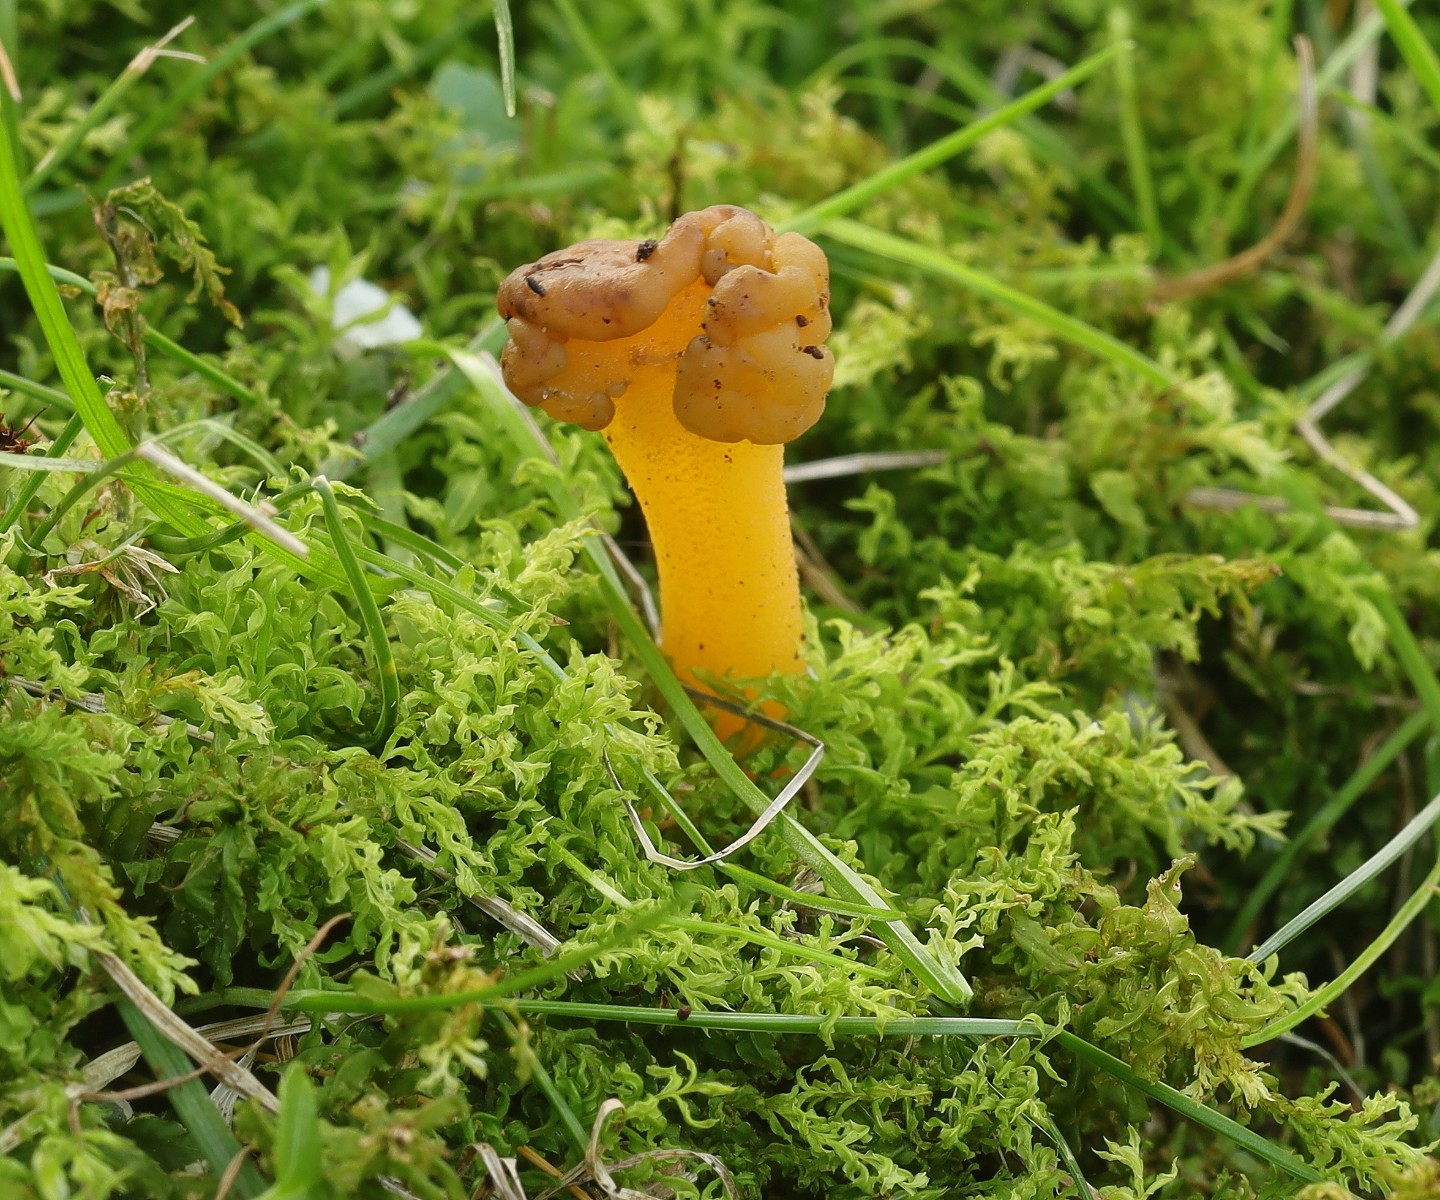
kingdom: Fungi
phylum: Ascomycota
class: Leotiomycetes
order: Leotiales
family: Leotiaceae
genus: Leotia
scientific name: Leotia lubrica
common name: ravsvamp
